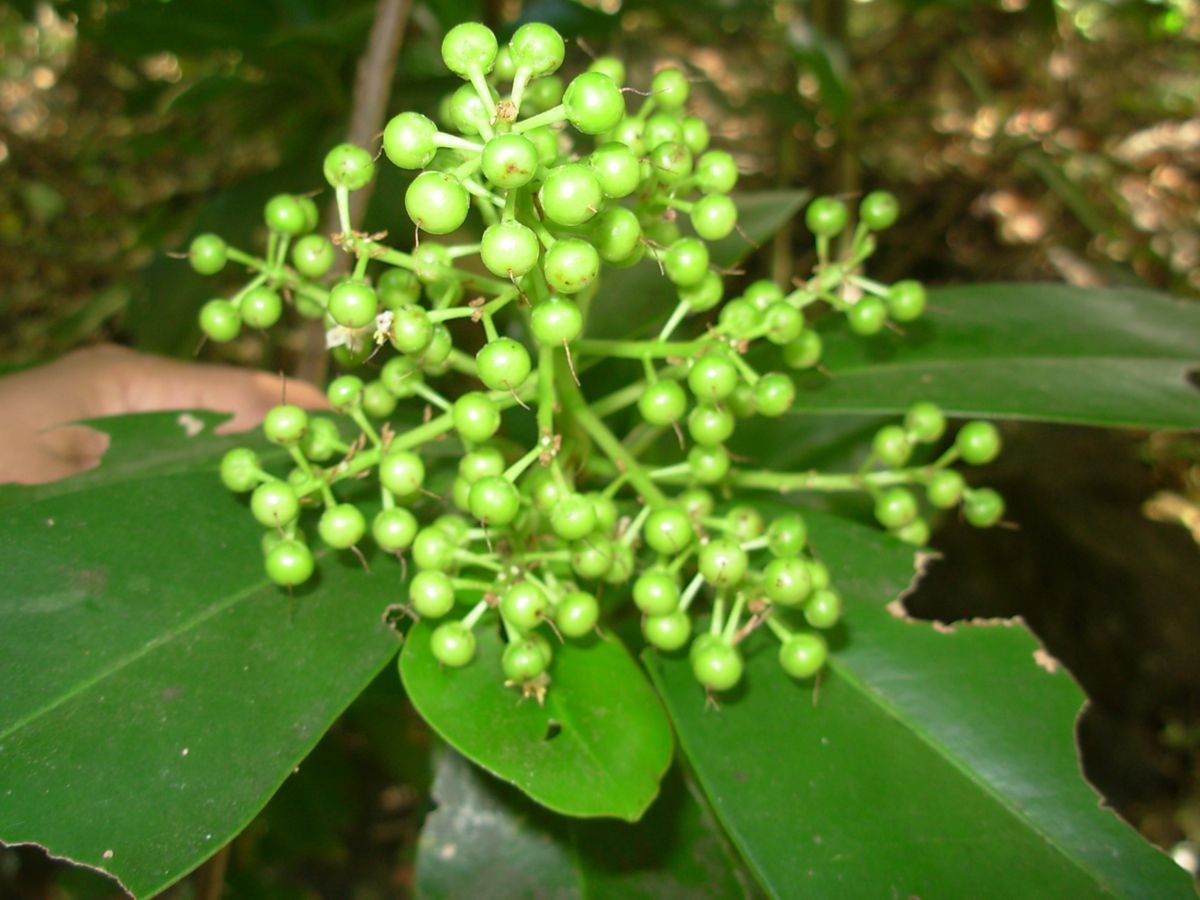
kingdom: Plantae
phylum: Tracheophyta
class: Magnoliopsida
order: Ericales
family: Primulaceae
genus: Ardisia
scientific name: Ardisia revoluta
